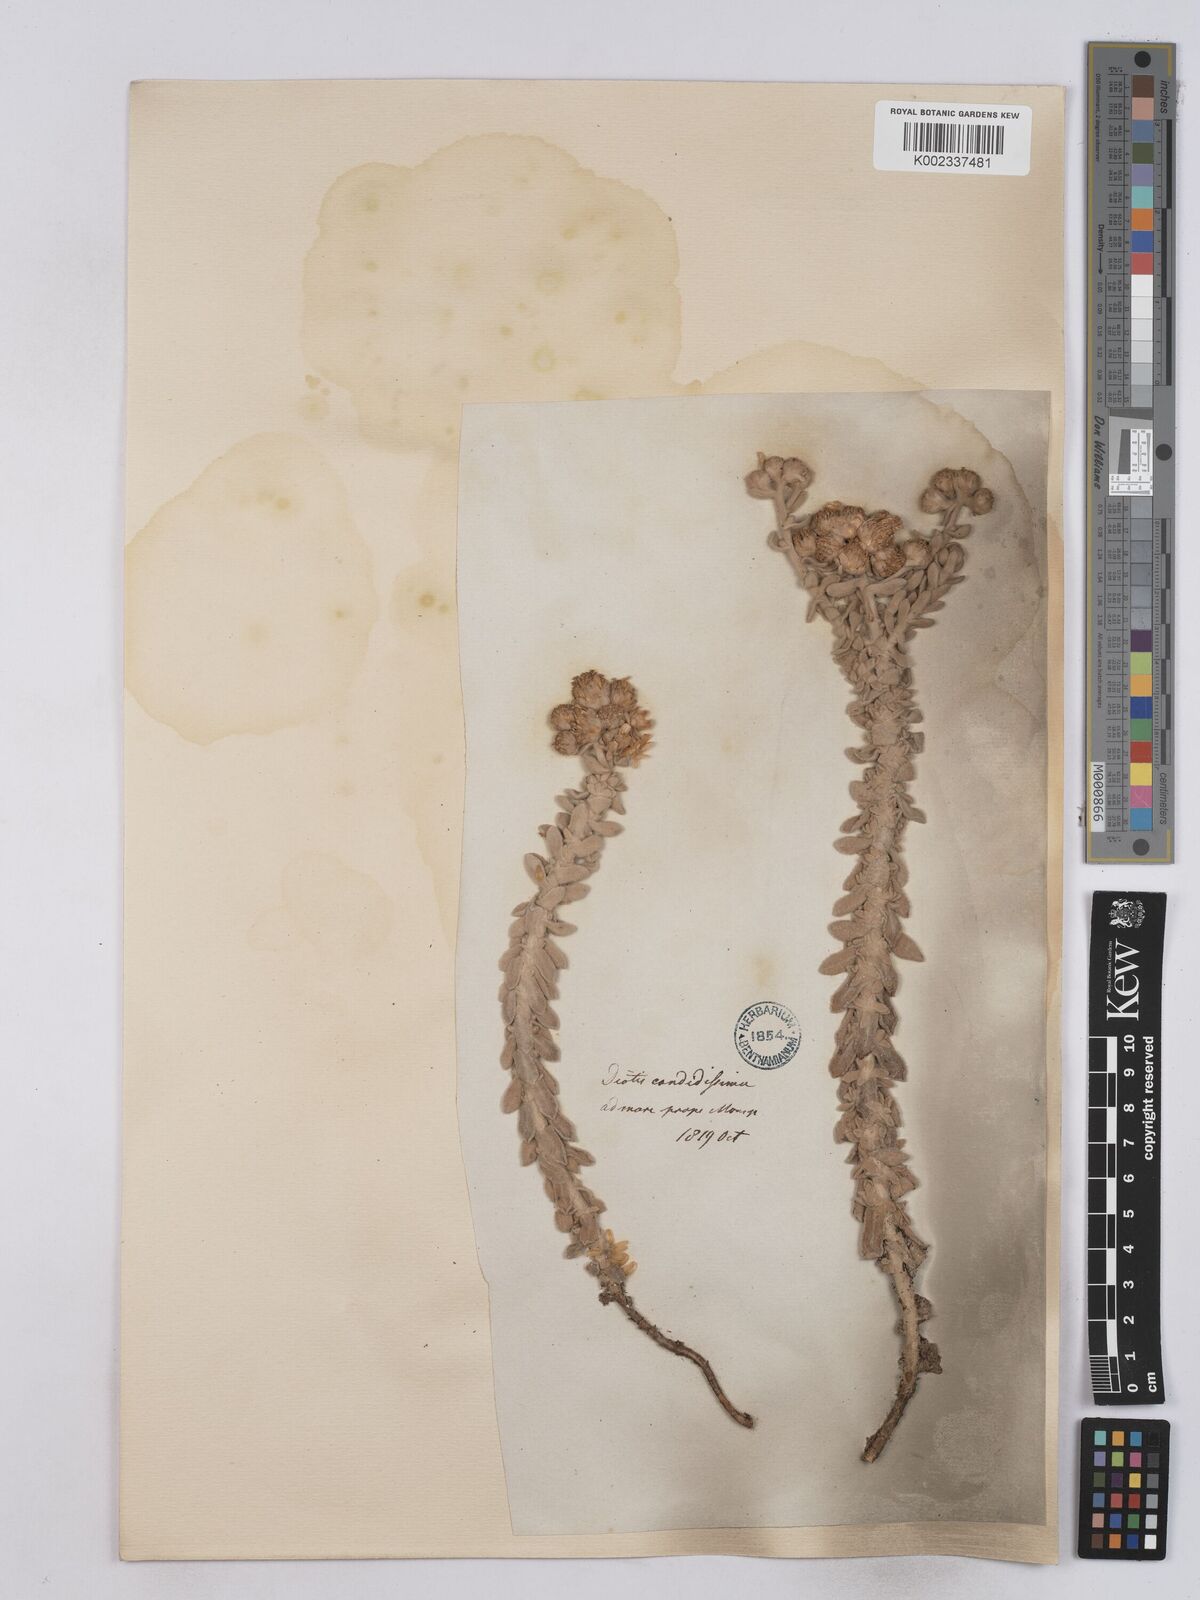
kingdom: Plantae
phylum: Tracheophyta
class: Magnoliopsida
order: Asterales
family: Asteraceae
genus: Achillea
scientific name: Achillea maritima
